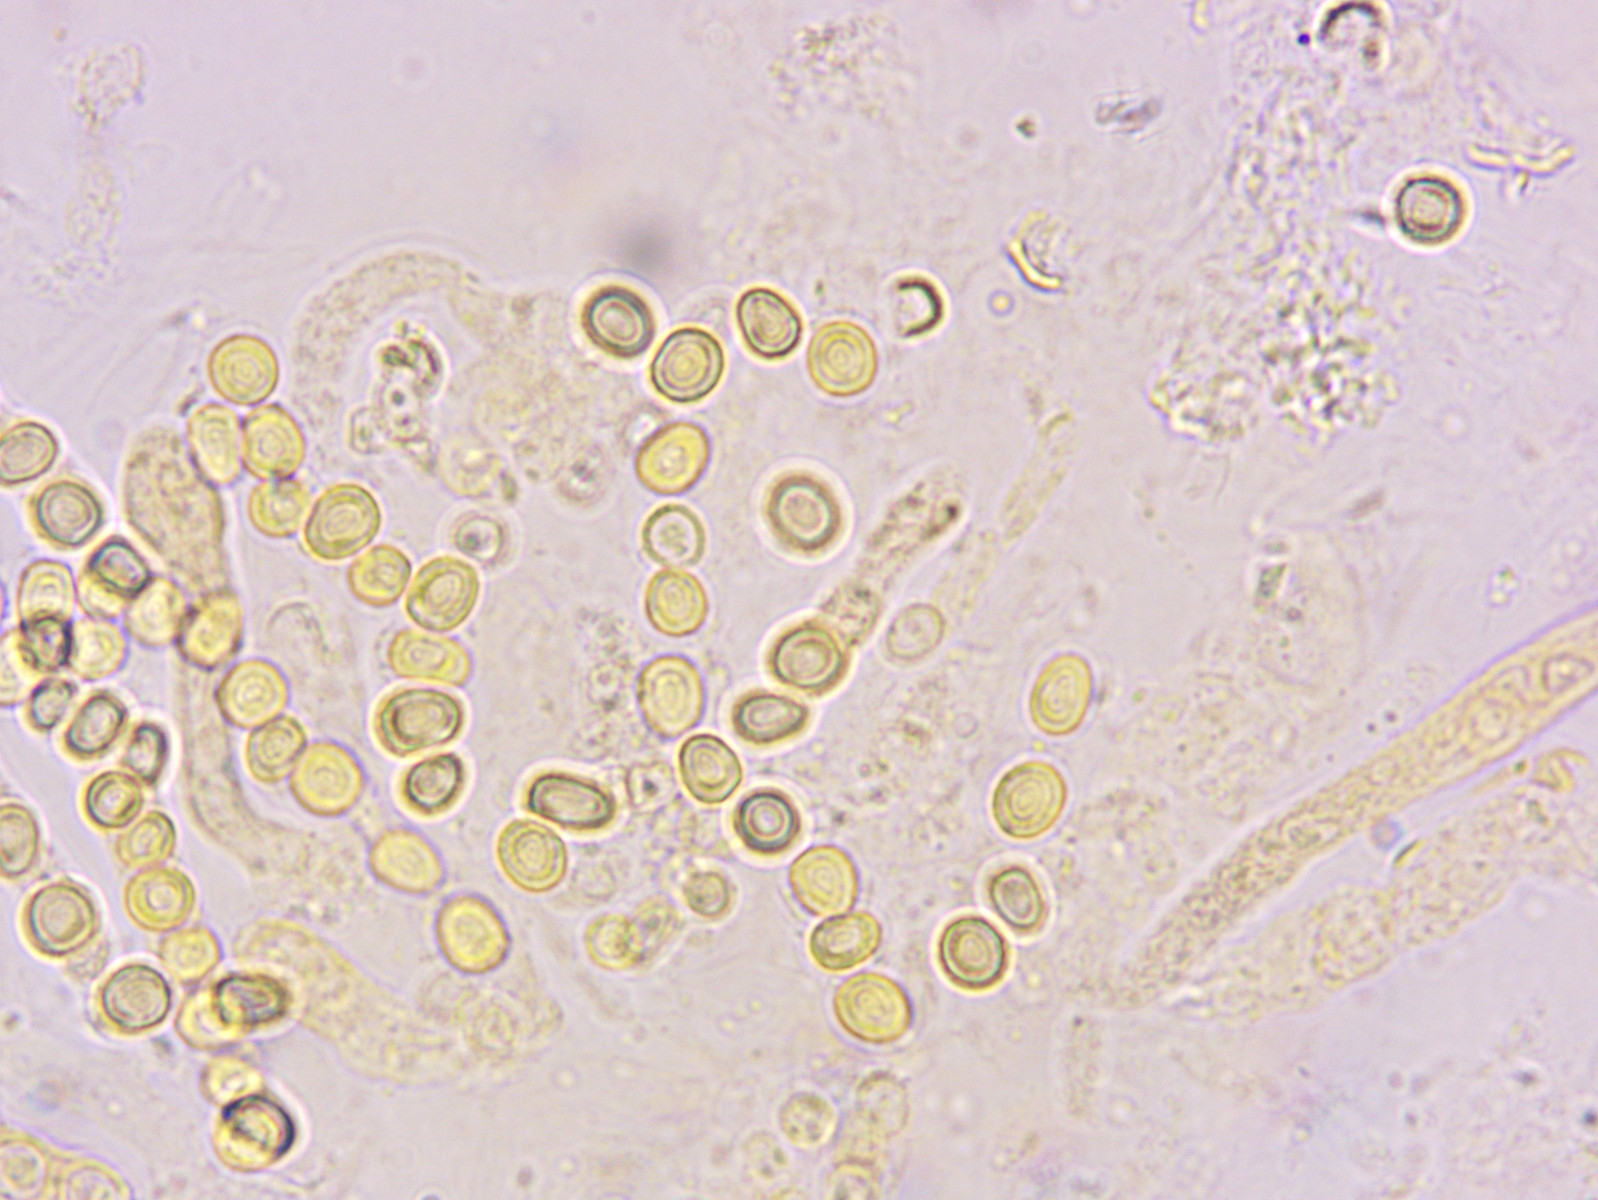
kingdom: Fungi
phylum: Ascomycota
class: Sordariomycetes
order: Hypocreales
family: Hypocreaceae
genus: Trichoderma
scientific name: Trichoderma europaeum
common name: rosabrun kødkerne
